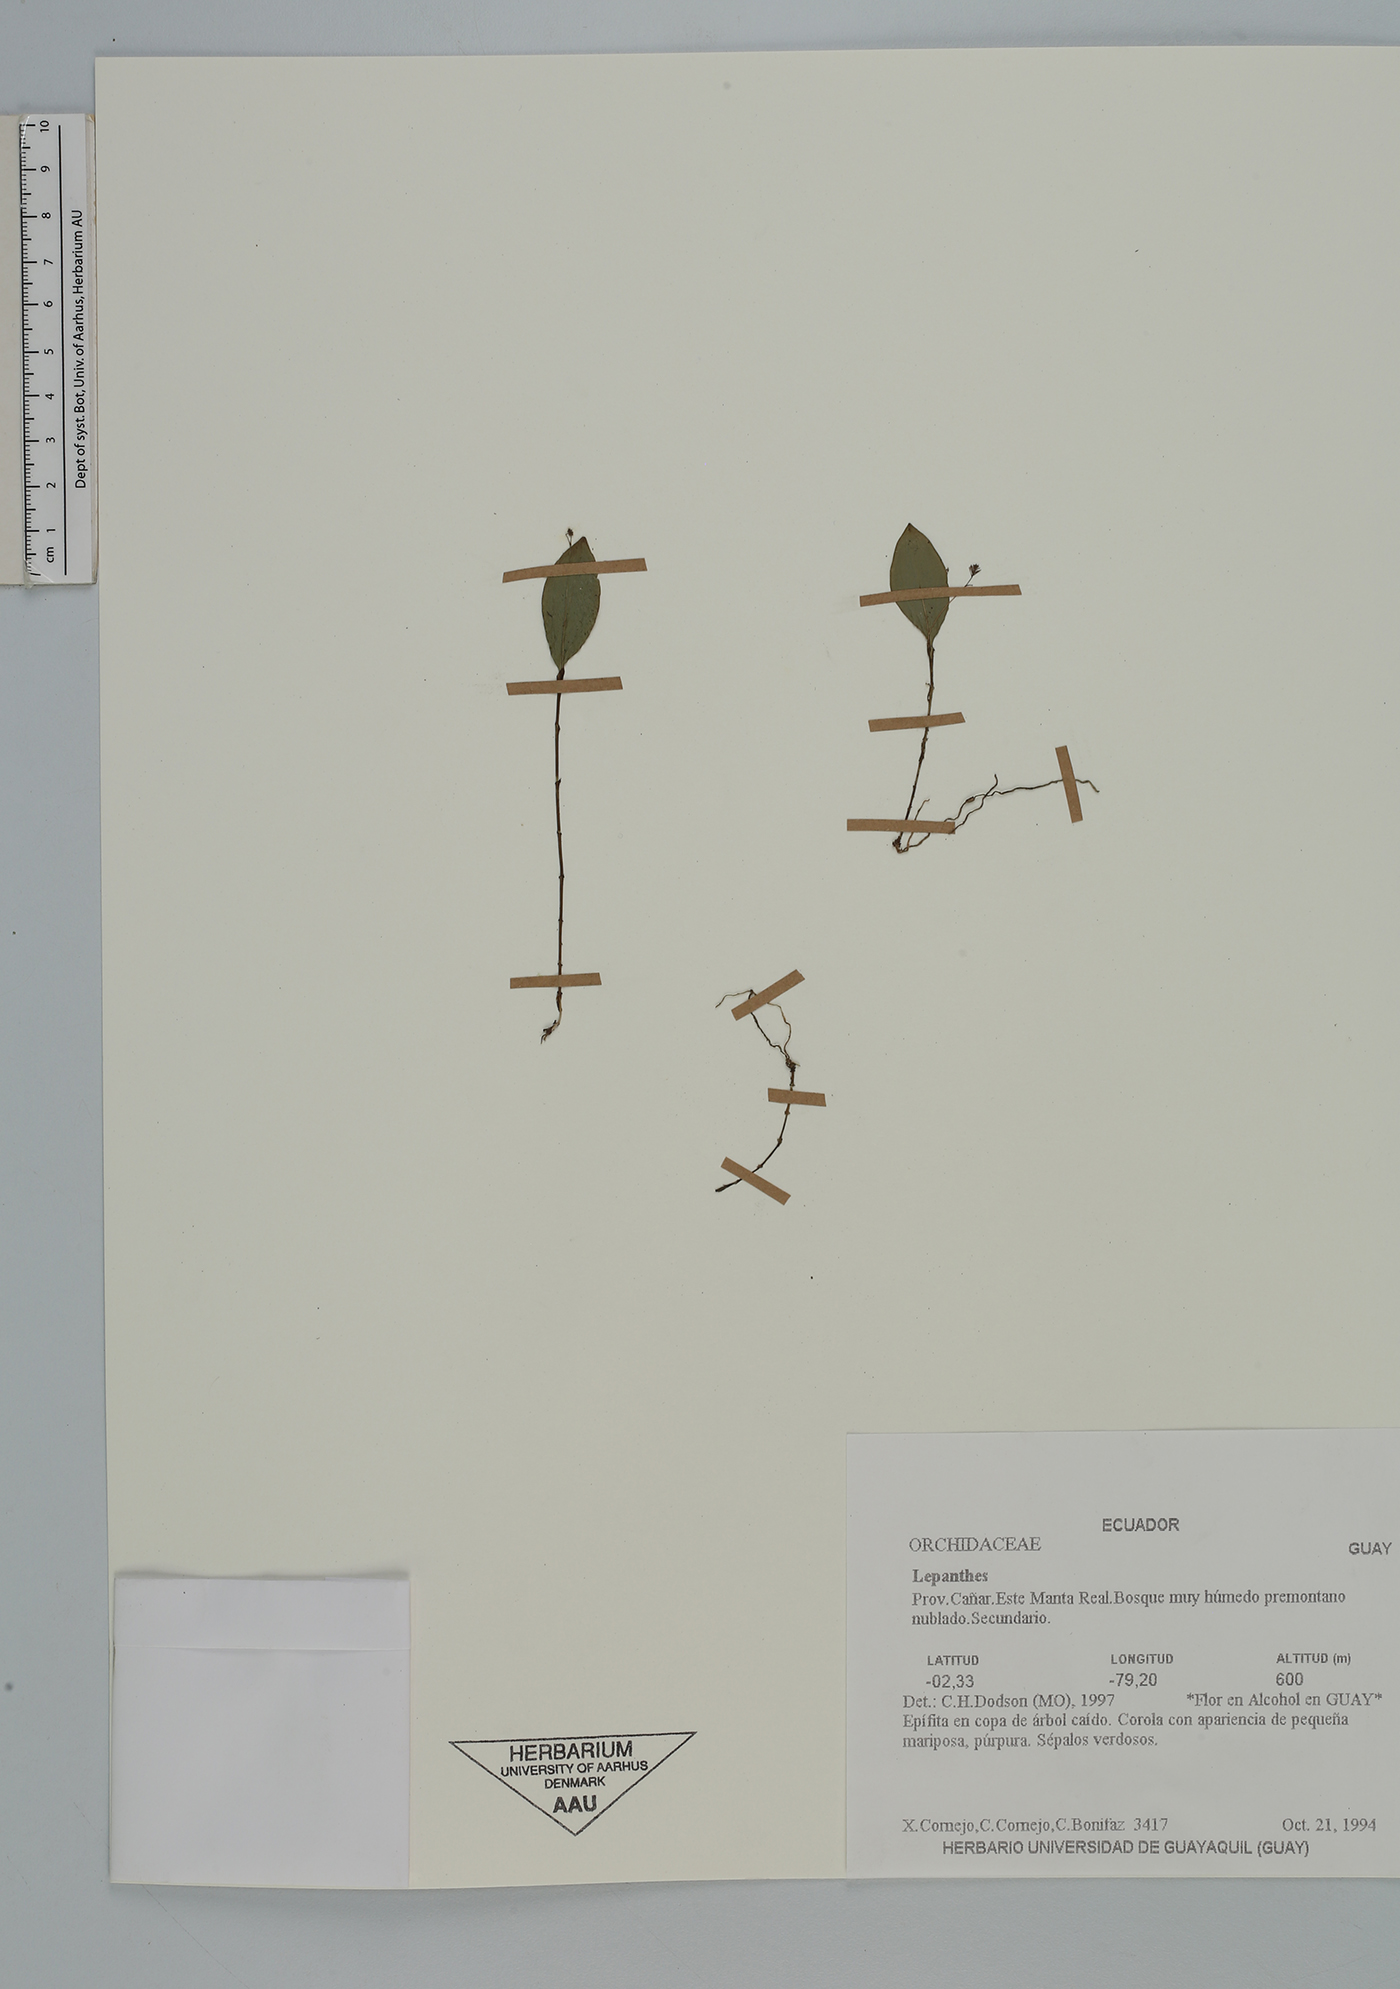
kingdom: Plantae
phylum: Tracheophyta
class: Liliopsida
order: Asparagales
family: Orchidaceae
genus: Lepanthes
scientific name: Lepanthes
